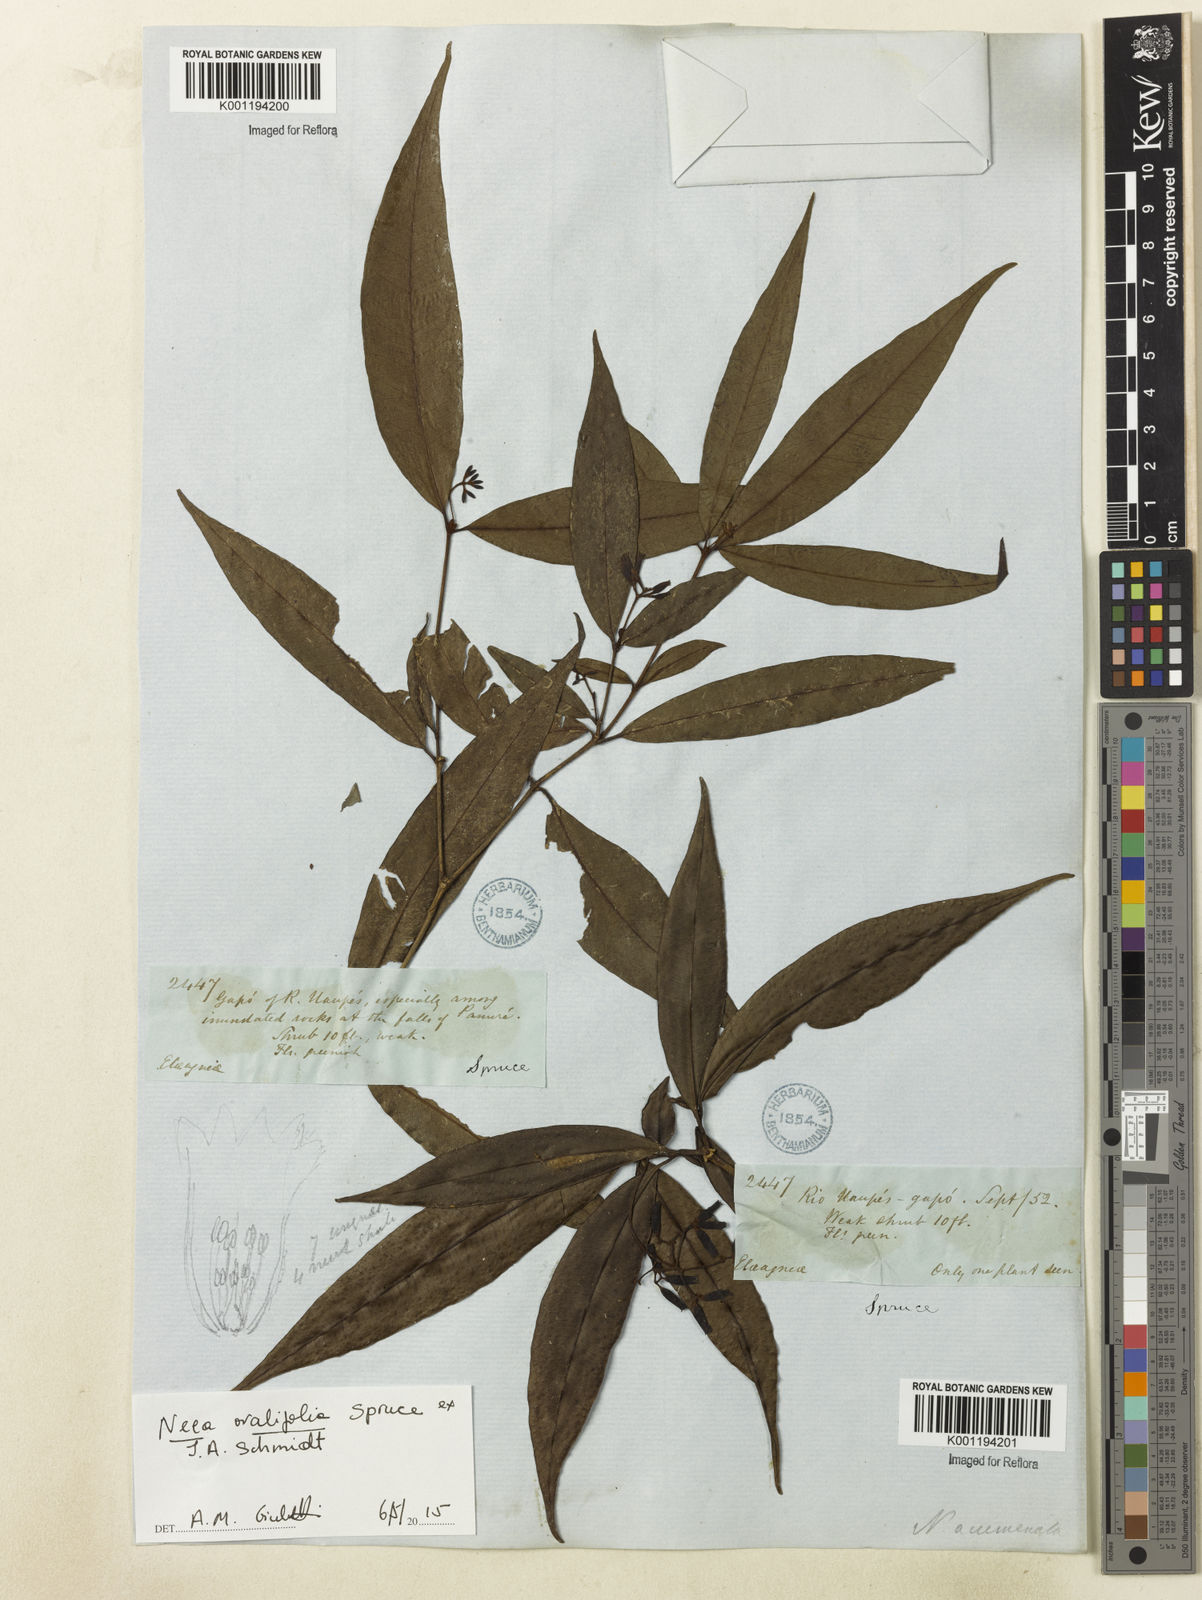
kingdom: Plantae
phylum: Tracheophyta
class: Magnoliopsida
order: Caryophyllales
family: Nyctaginaceae
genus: Neea
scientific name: Neea ovalifolia
